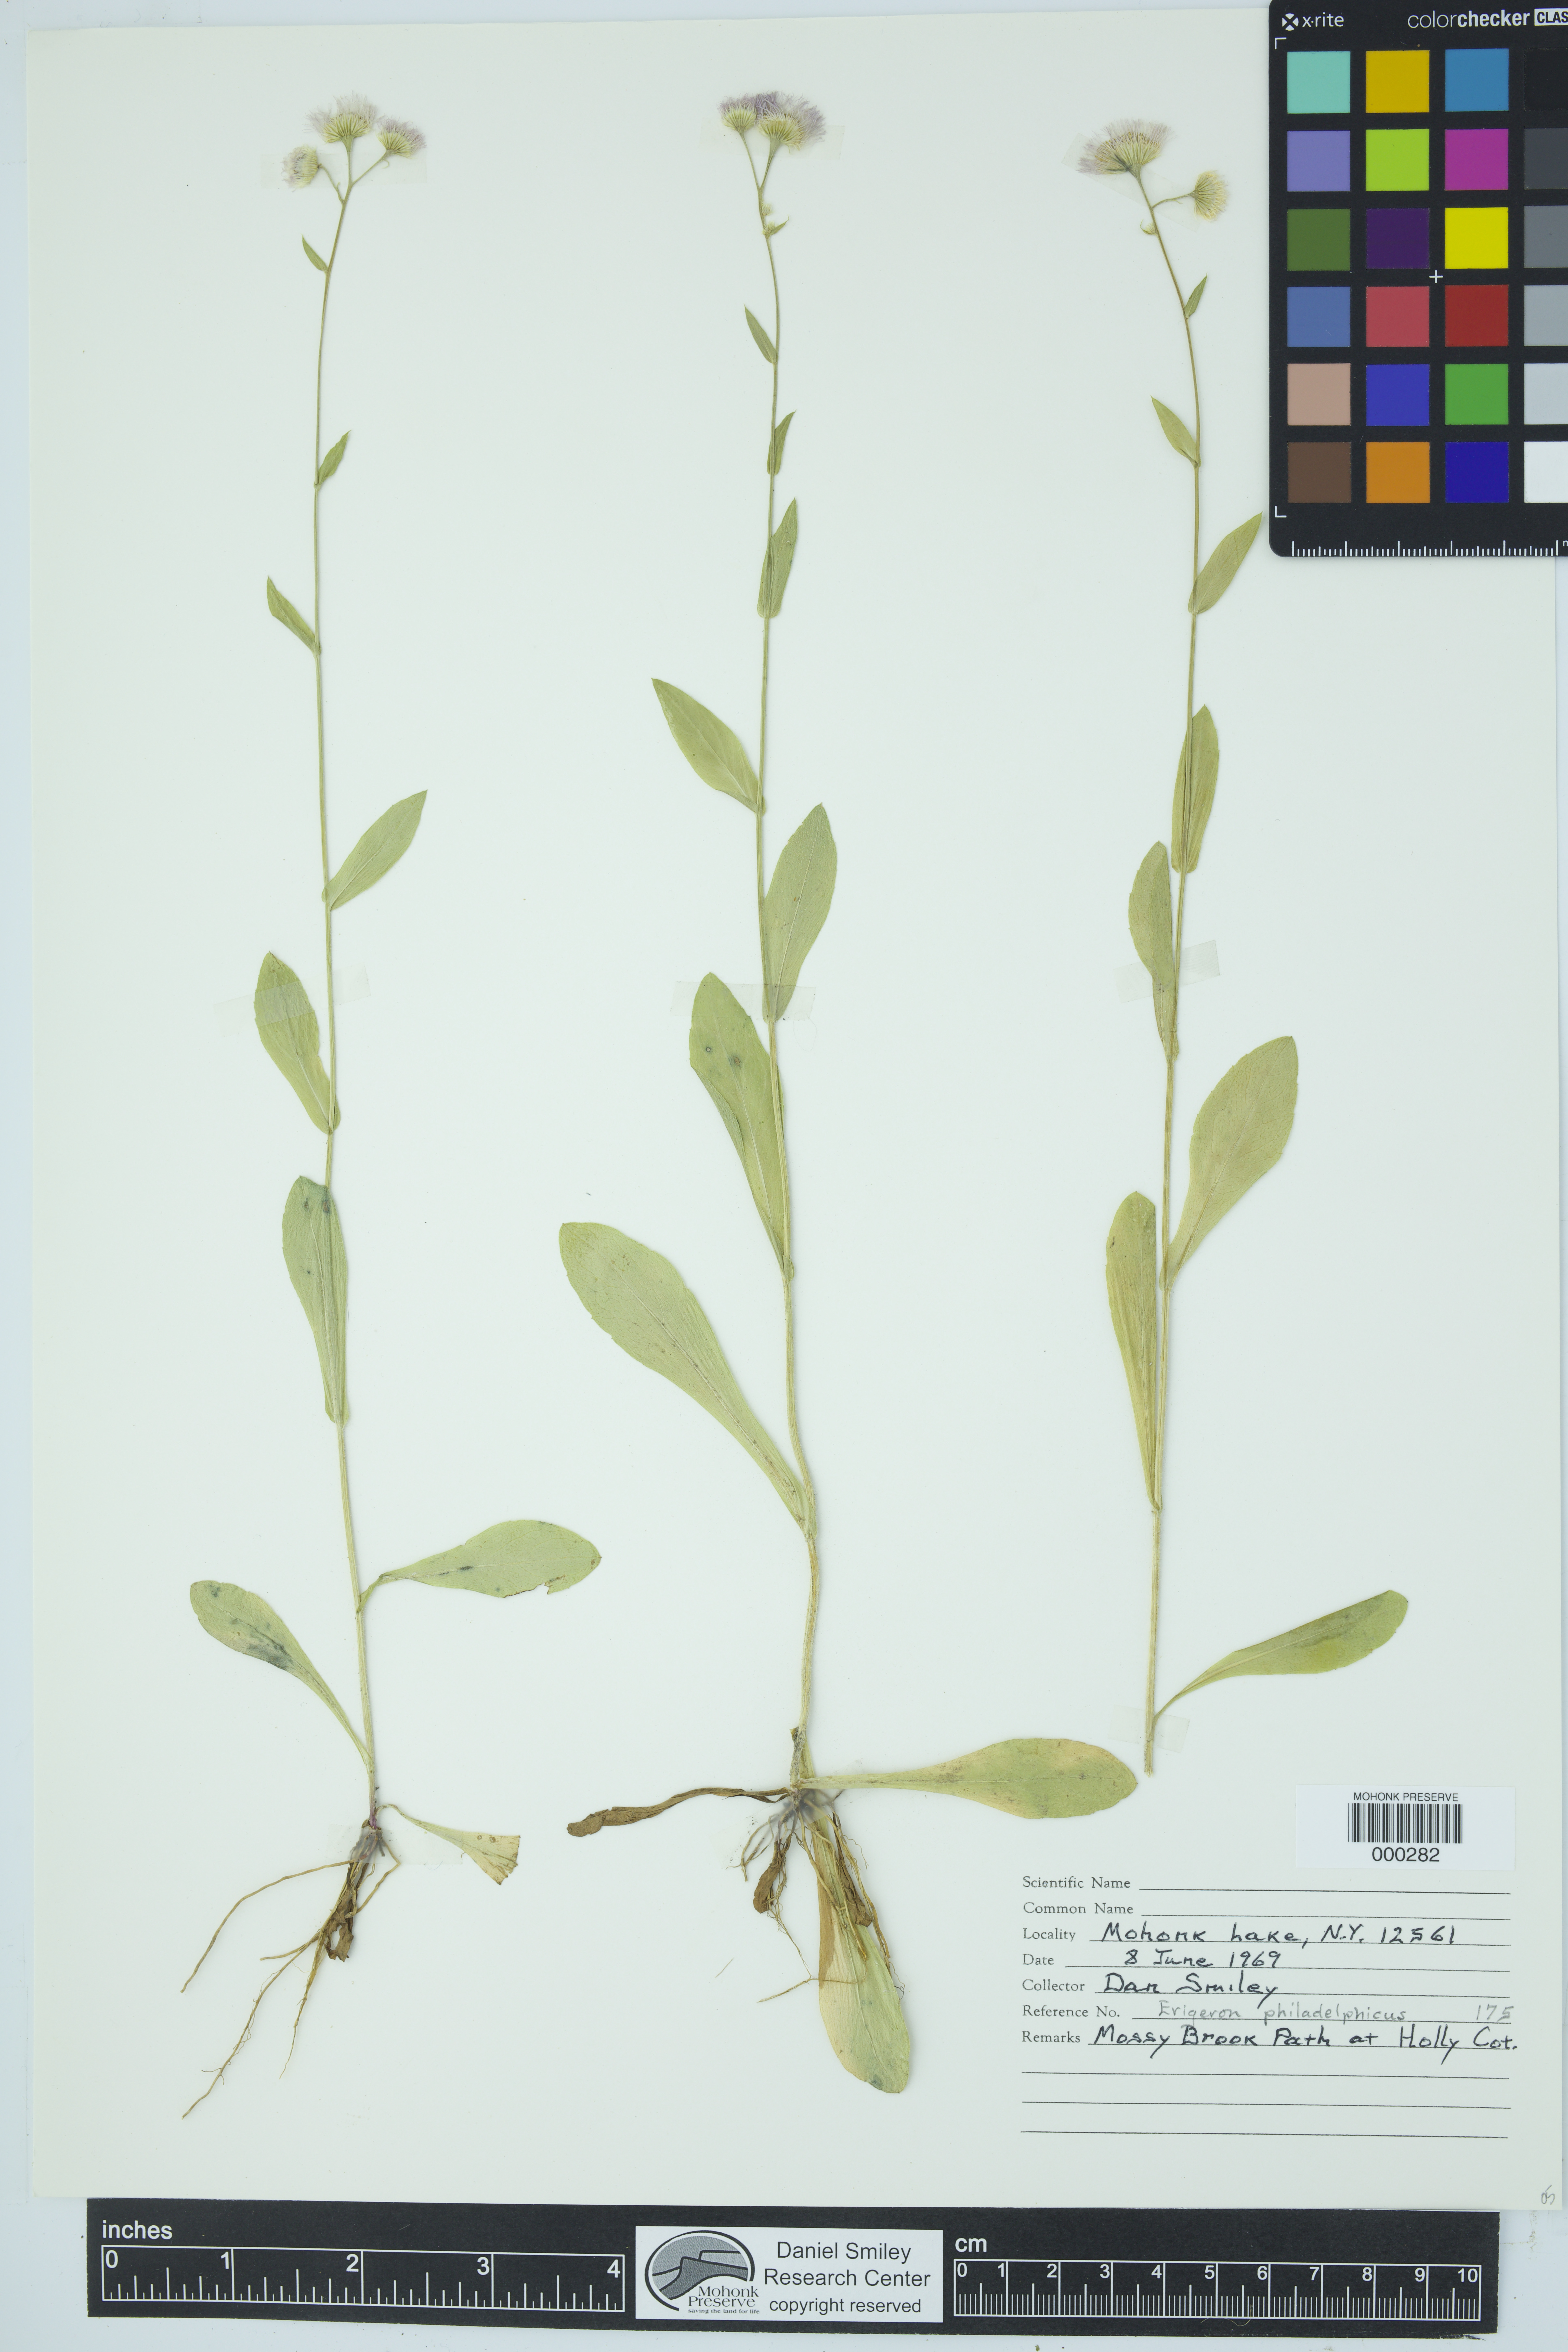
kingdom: Plantae
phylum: Tracheophyta
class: Magnoliopsida
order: Asterales
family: Asteraceae
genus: Erigeron
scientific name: Erigeron philadelphicus
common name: Robin's-plantain
